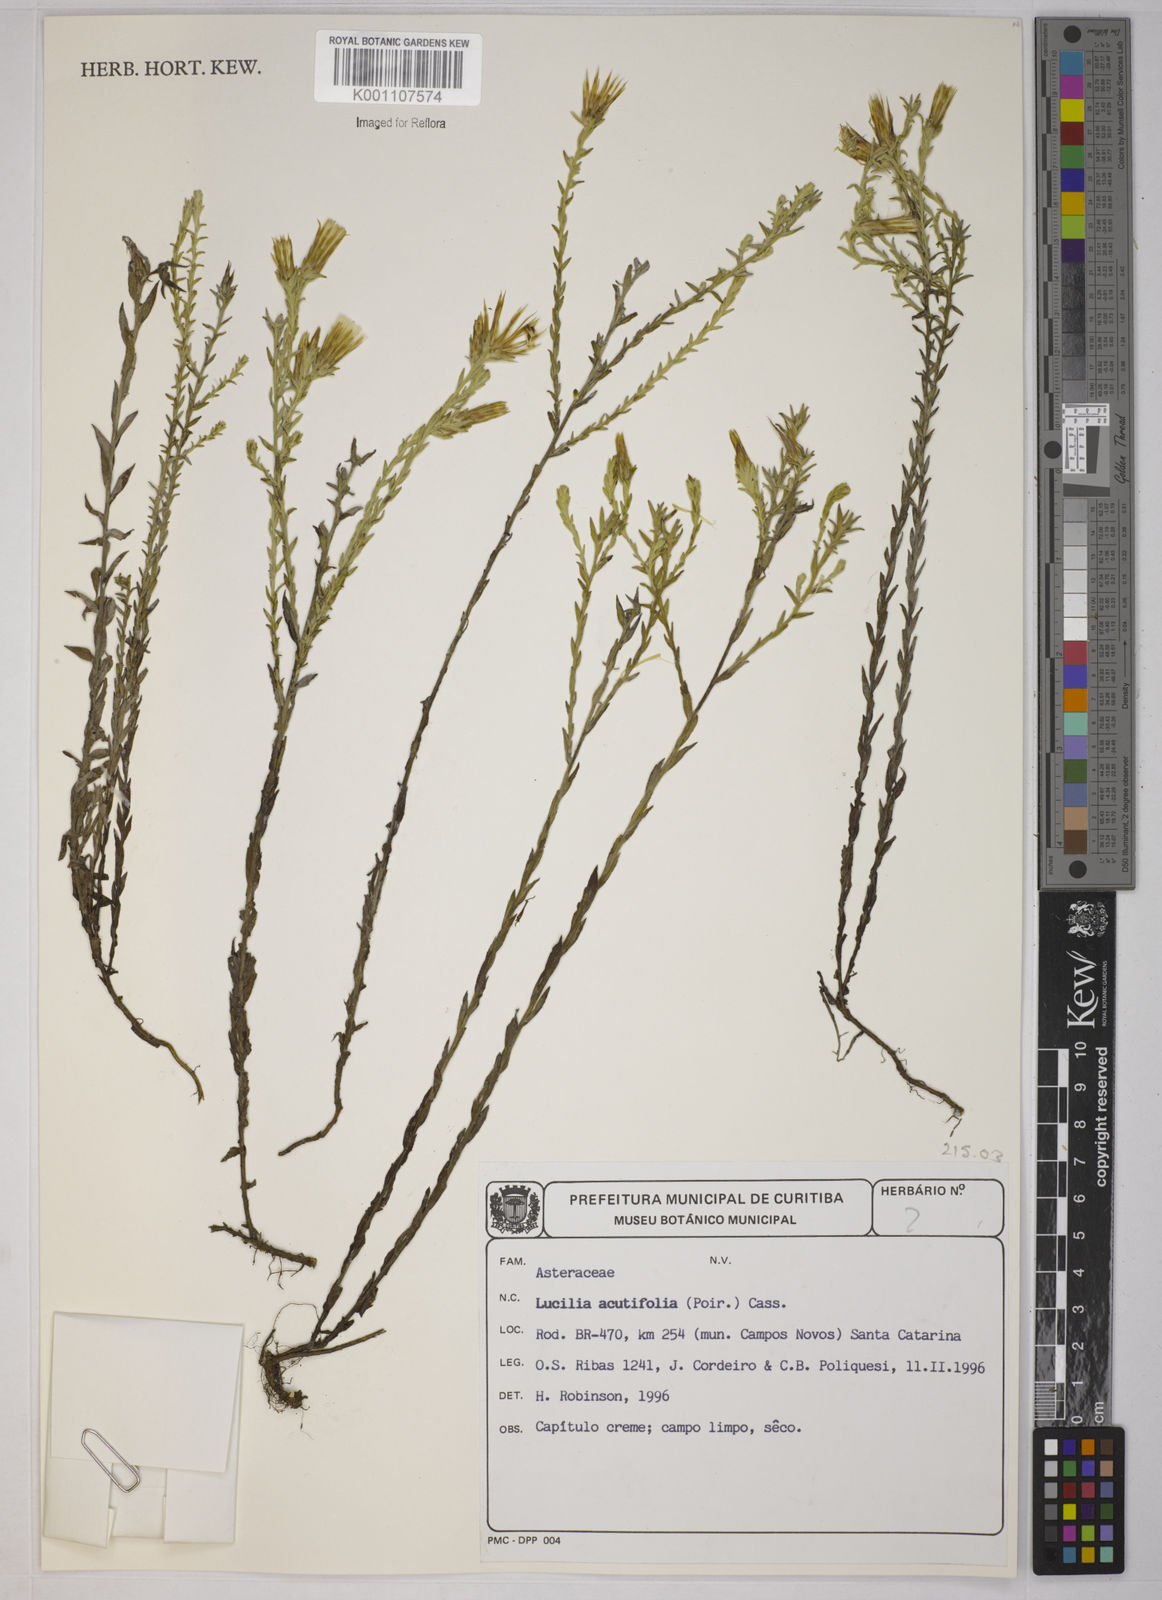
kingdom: Plantae
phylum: Tracheophyta
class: Magnoliopsida
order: Asterales
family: Asteraceae
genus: Lucilia
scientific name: Lucilia acutifolia
